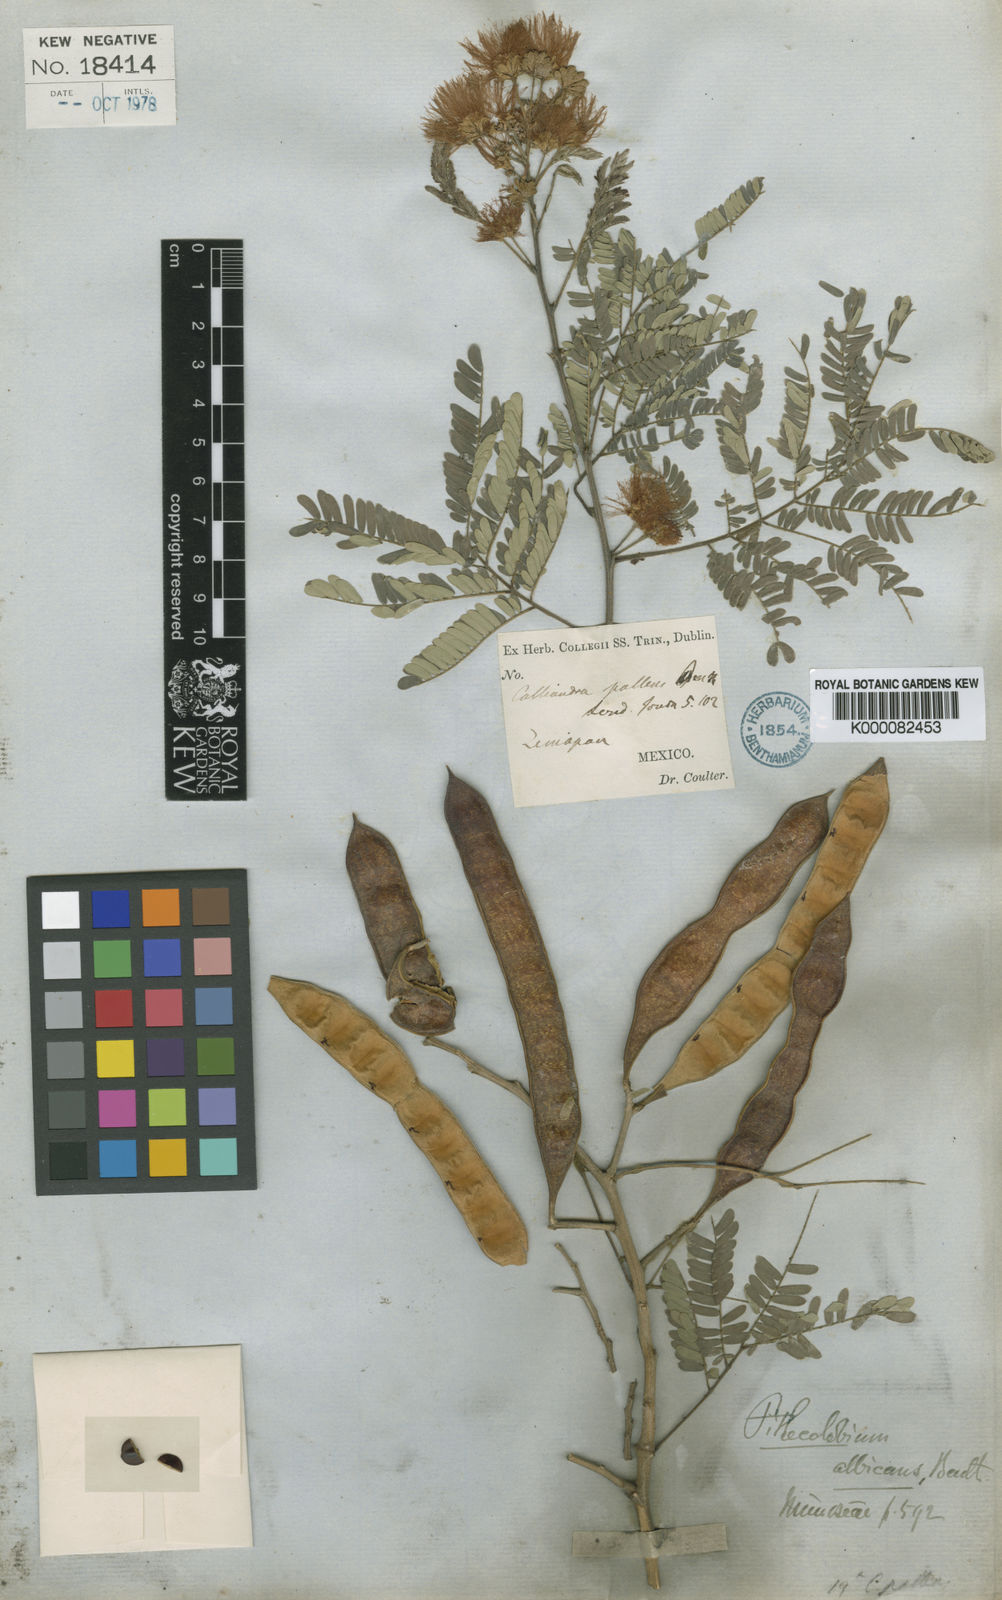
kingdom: Plantae
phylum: Tracheophyta
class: Magnoliopsida
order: Fabales
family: Fabaceae
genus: Havardia
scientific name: Havardia pallens
